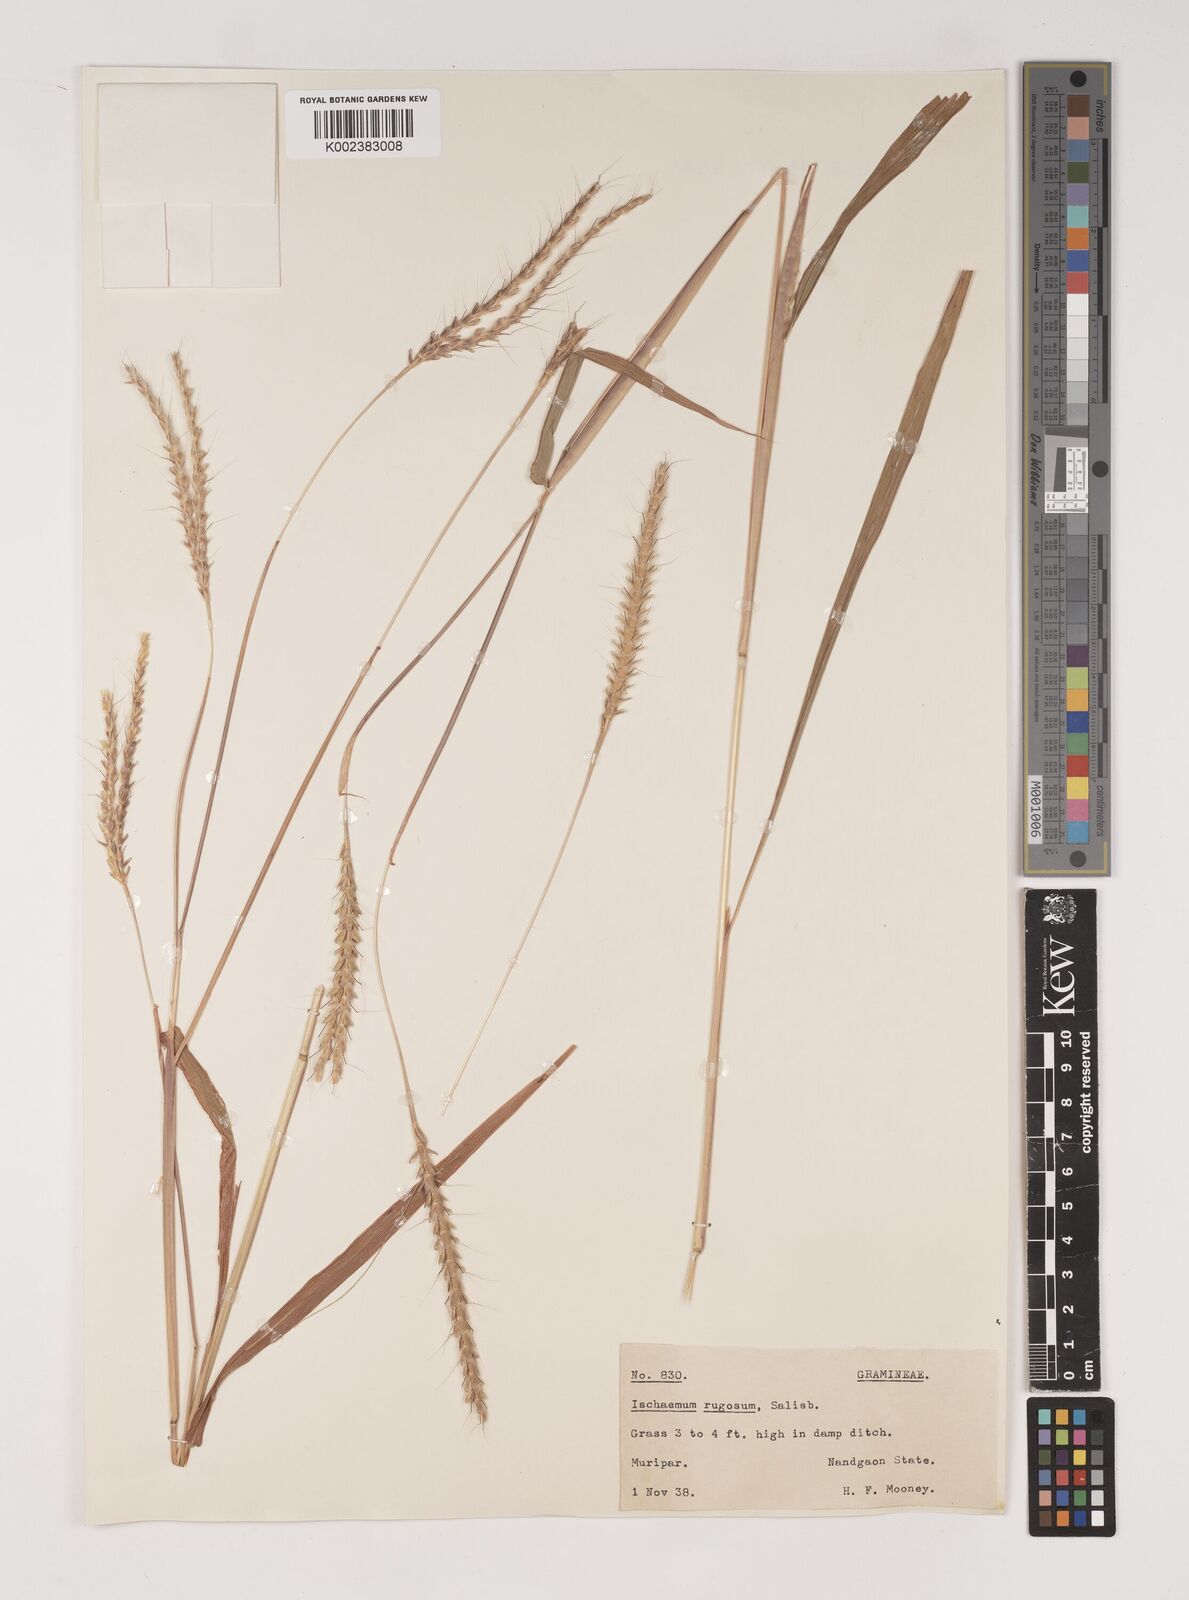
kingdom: Plantae
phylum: Tracheophyta
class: Liliopsida
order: Poales
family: Poaceae
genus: Ischaemum
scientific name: Ischaemum rugosum
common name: Saramatta grass
